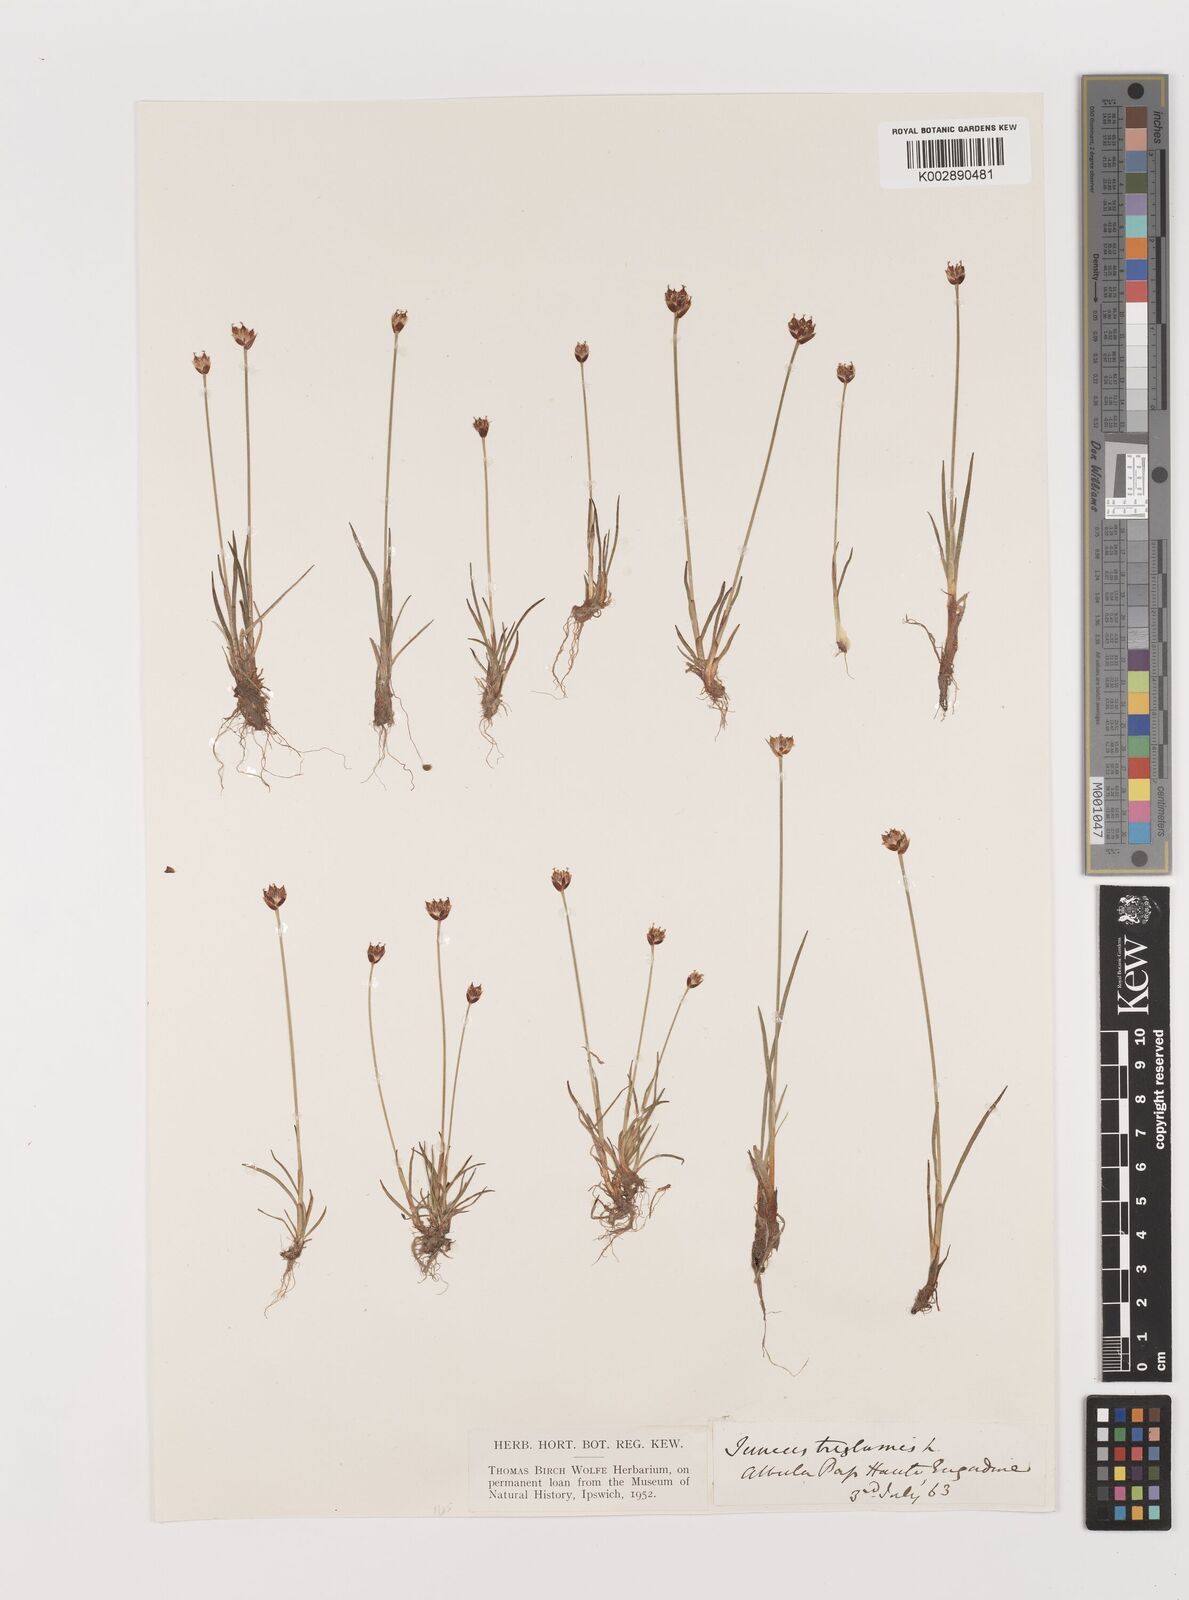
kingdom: Plantae
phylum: Tracheophyta
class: Liliopsida
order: Poales
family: Juncaceae
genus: Juncus
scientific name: Juncus triglumis
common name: Three-flowered rush
